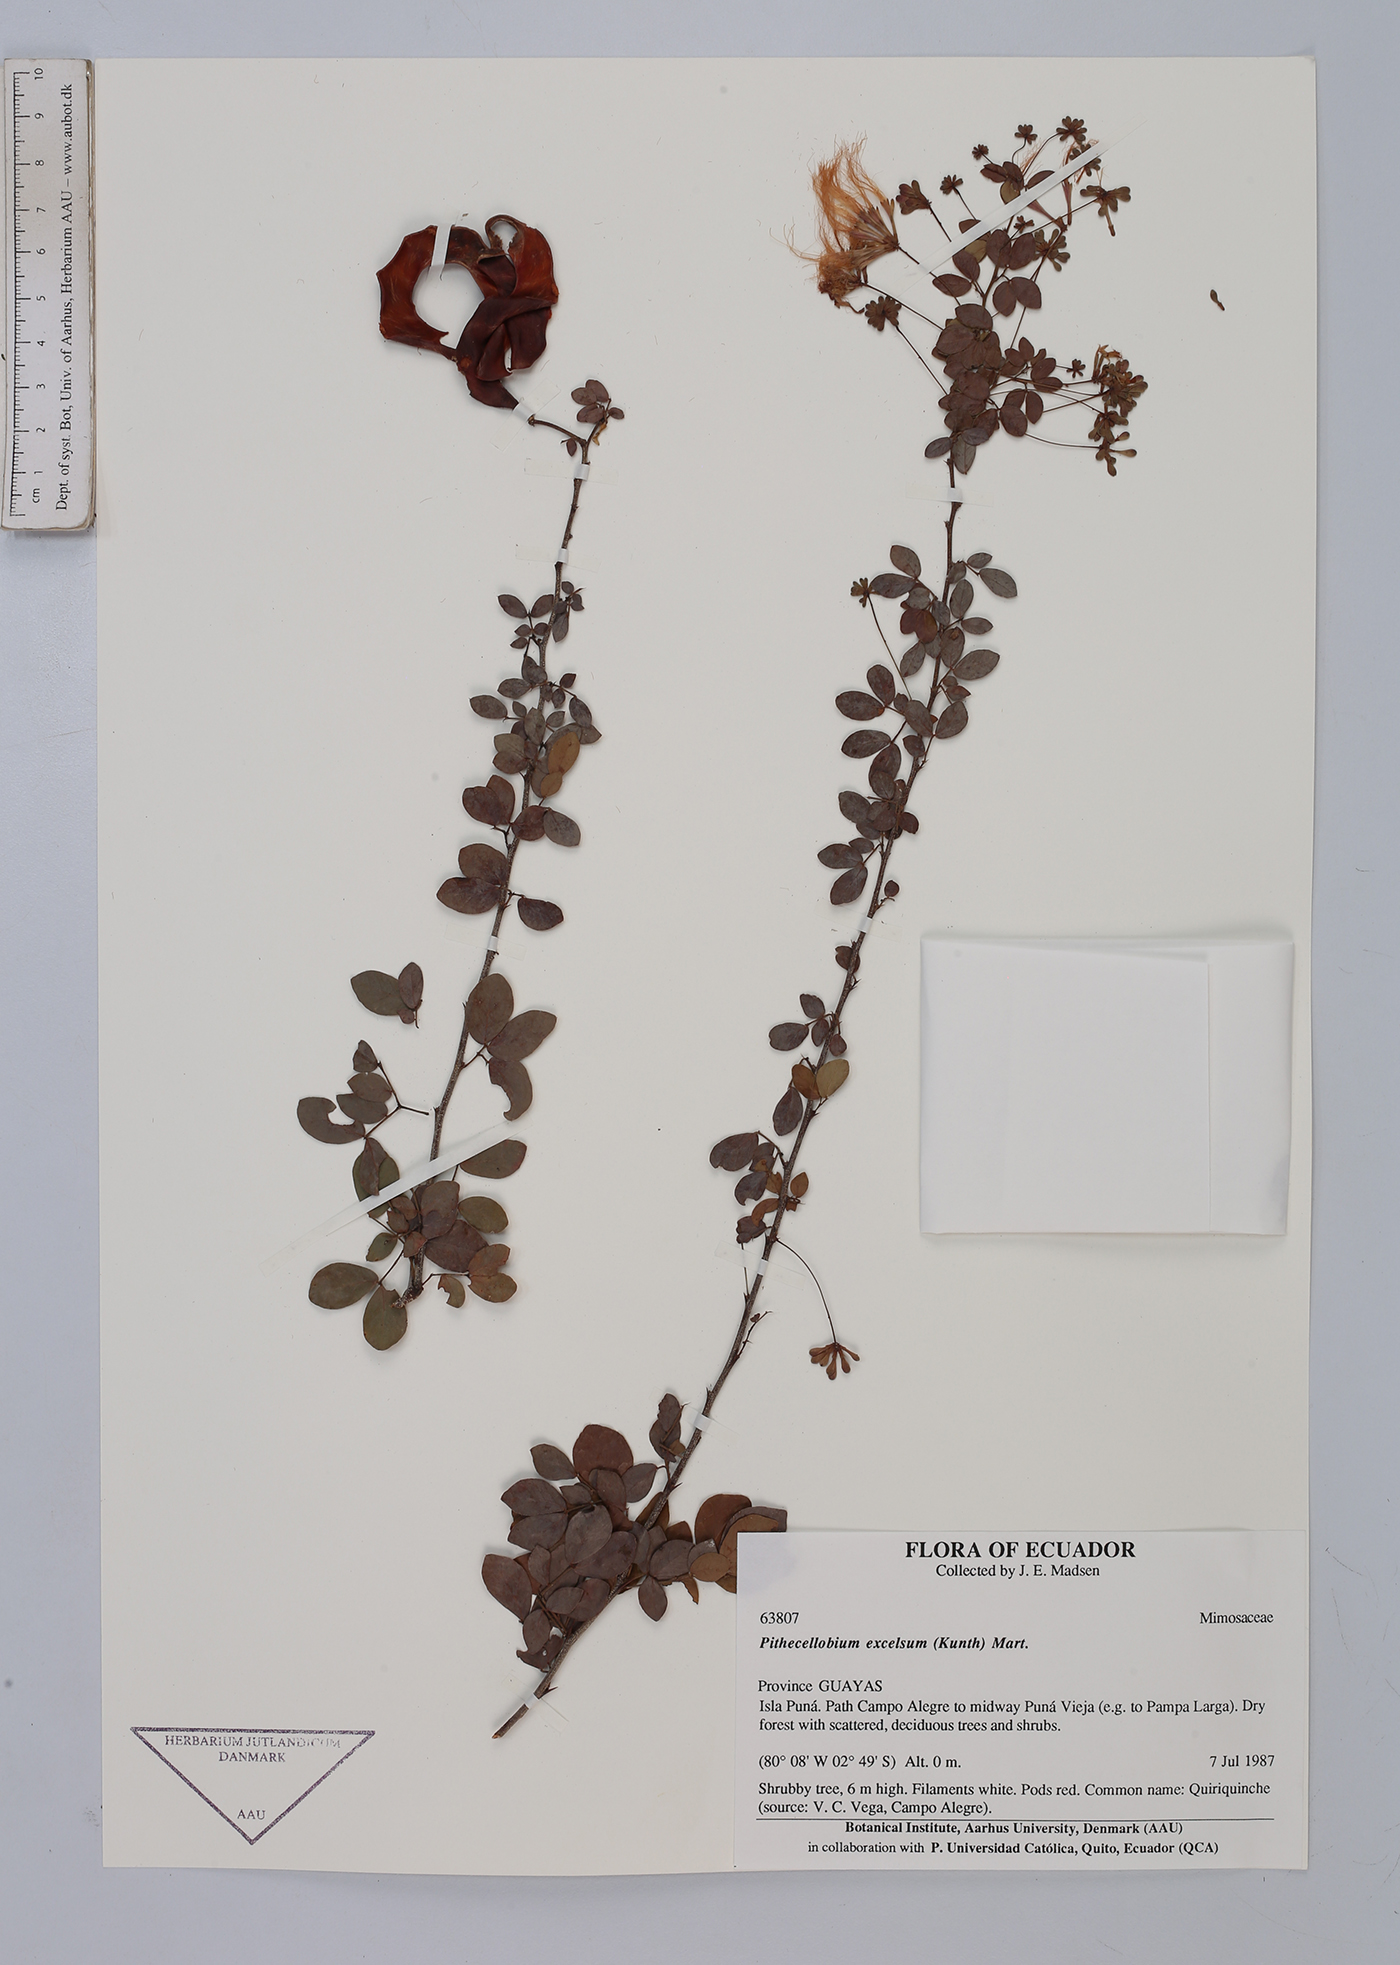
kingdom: Plantae
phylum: Tracheophyta
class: Magnoliopsida
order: Fabales
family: Fabaceae
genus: Pithecellobium
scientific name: Pithecellobium excelsum
